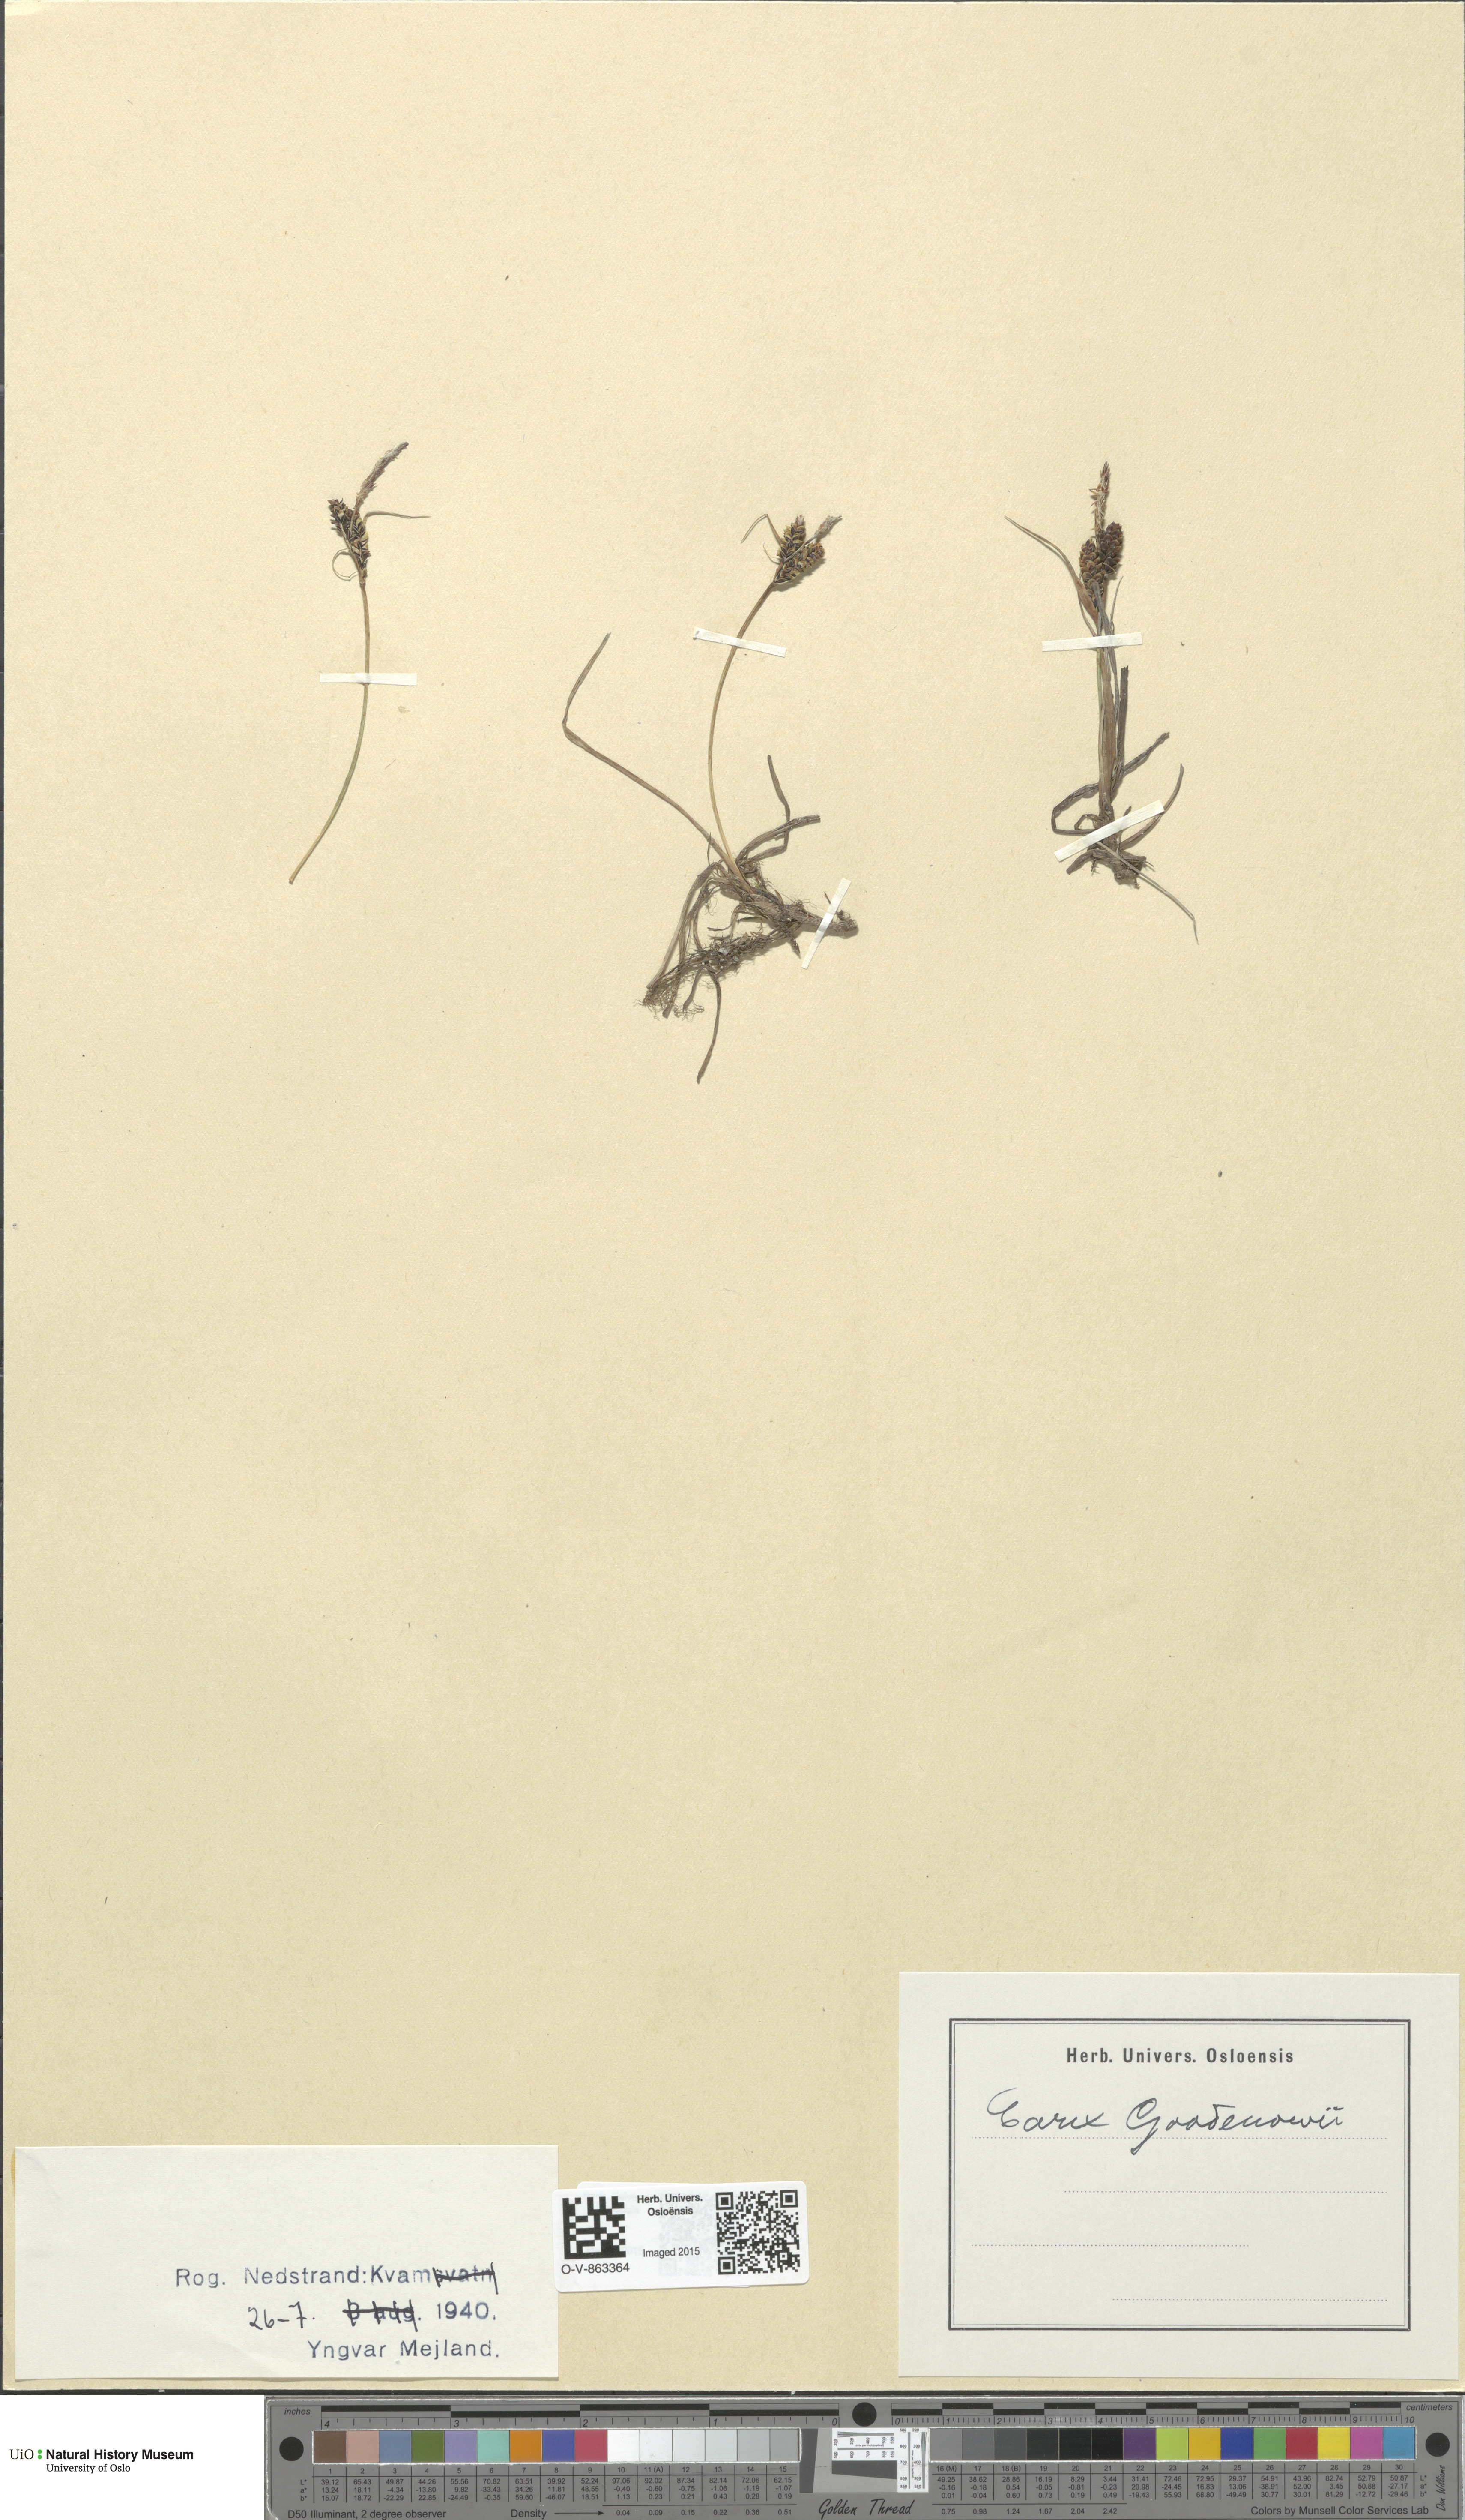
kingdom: Plantae
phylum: Tracheophyta
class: Liliopsida
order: Poales
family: Cyperaceae
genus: Carex
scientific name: Carex nigra
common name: Common sedge
